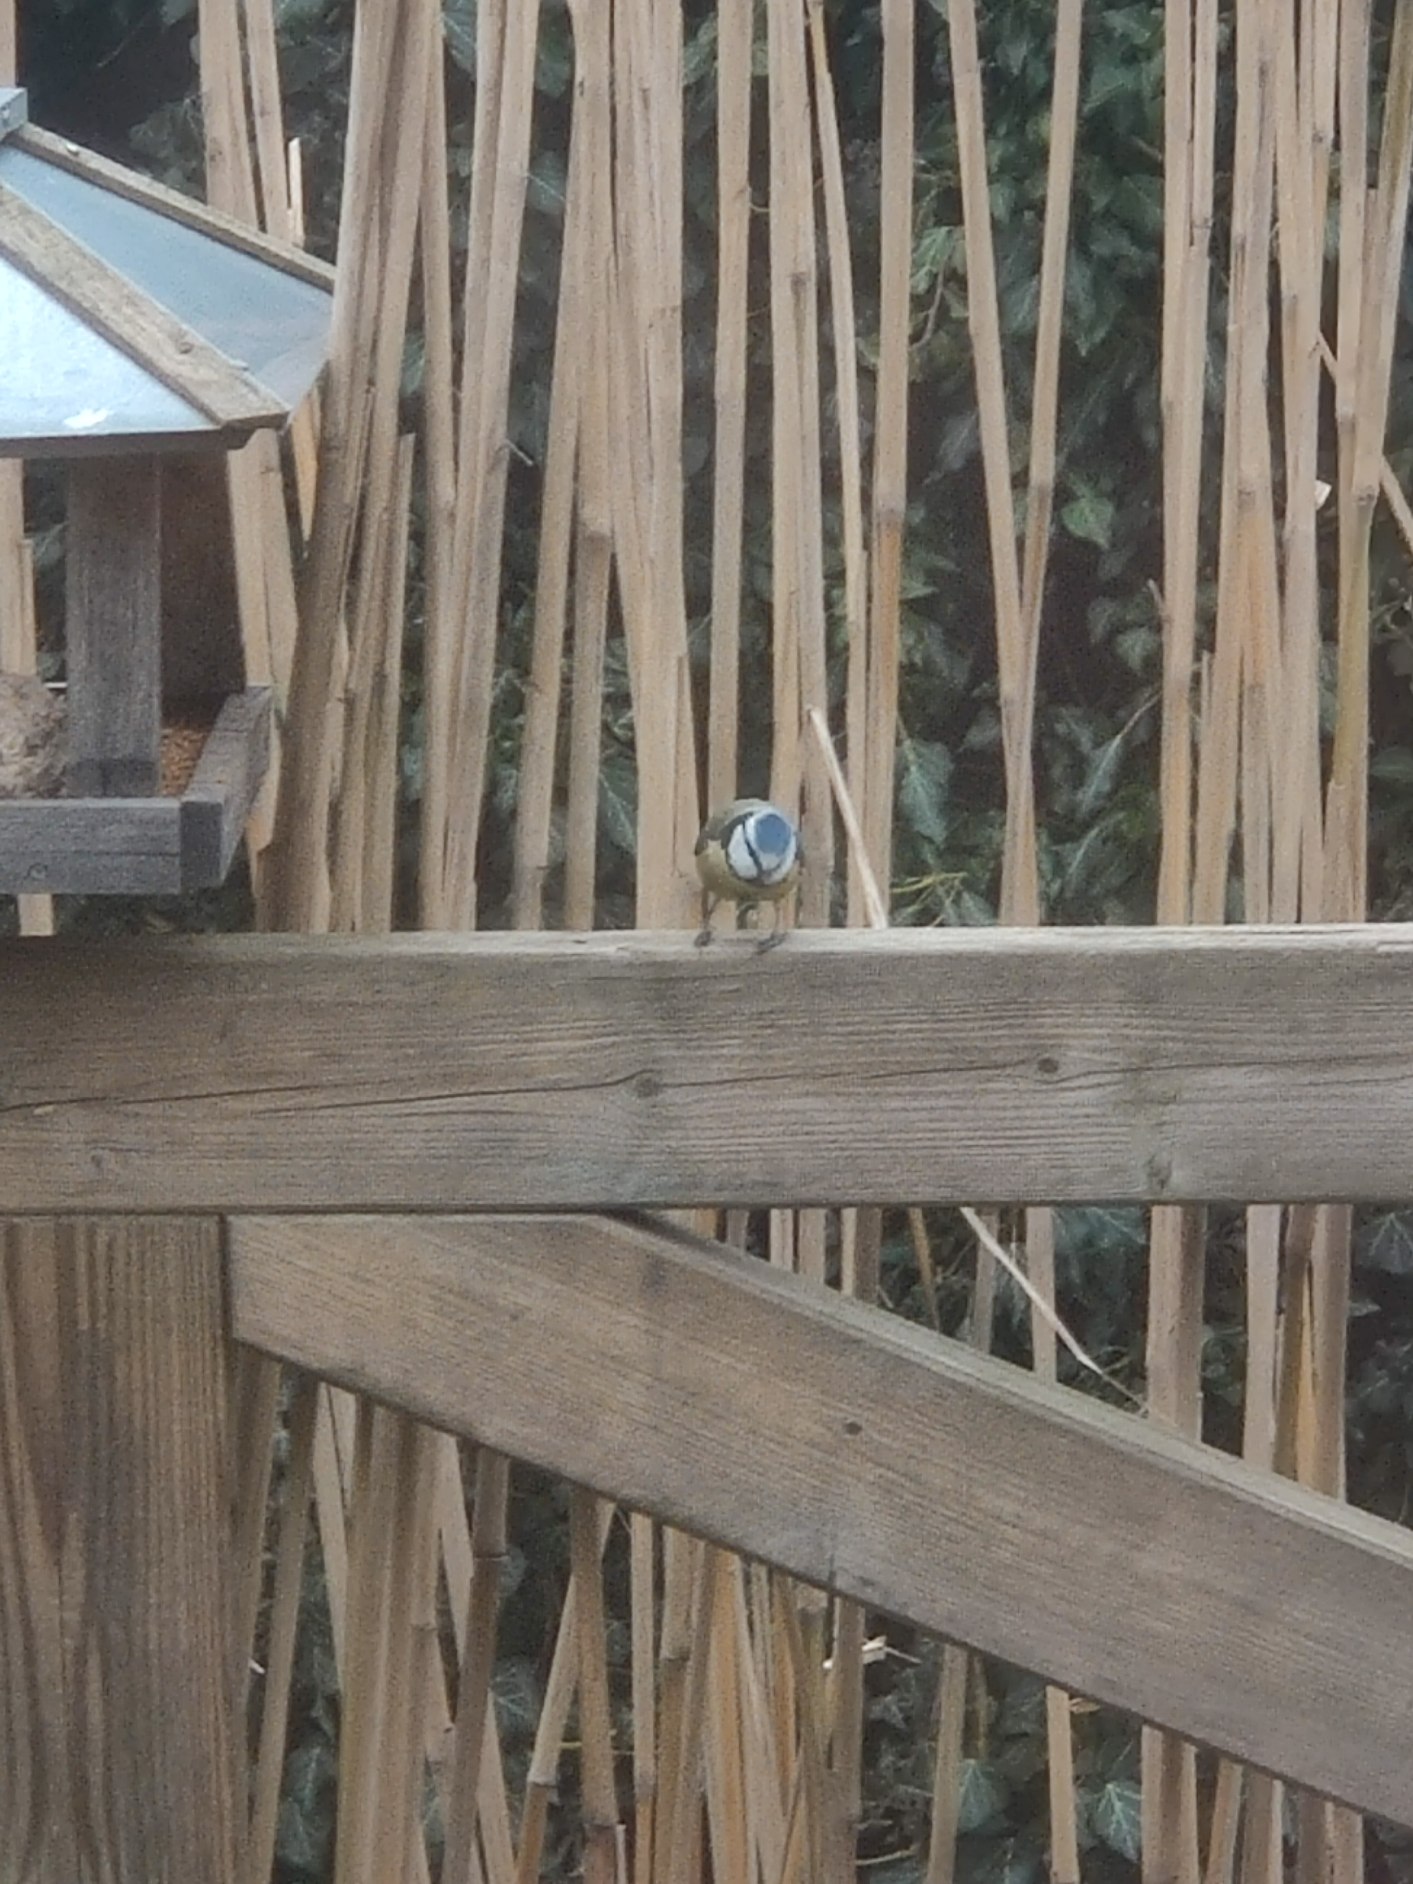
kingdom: Animalia
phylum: Chordata
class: Aves
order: Passeriformes
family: Paridae
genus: Cyanistes
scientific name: Cyanistes caeruleus
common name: Blåmejse
